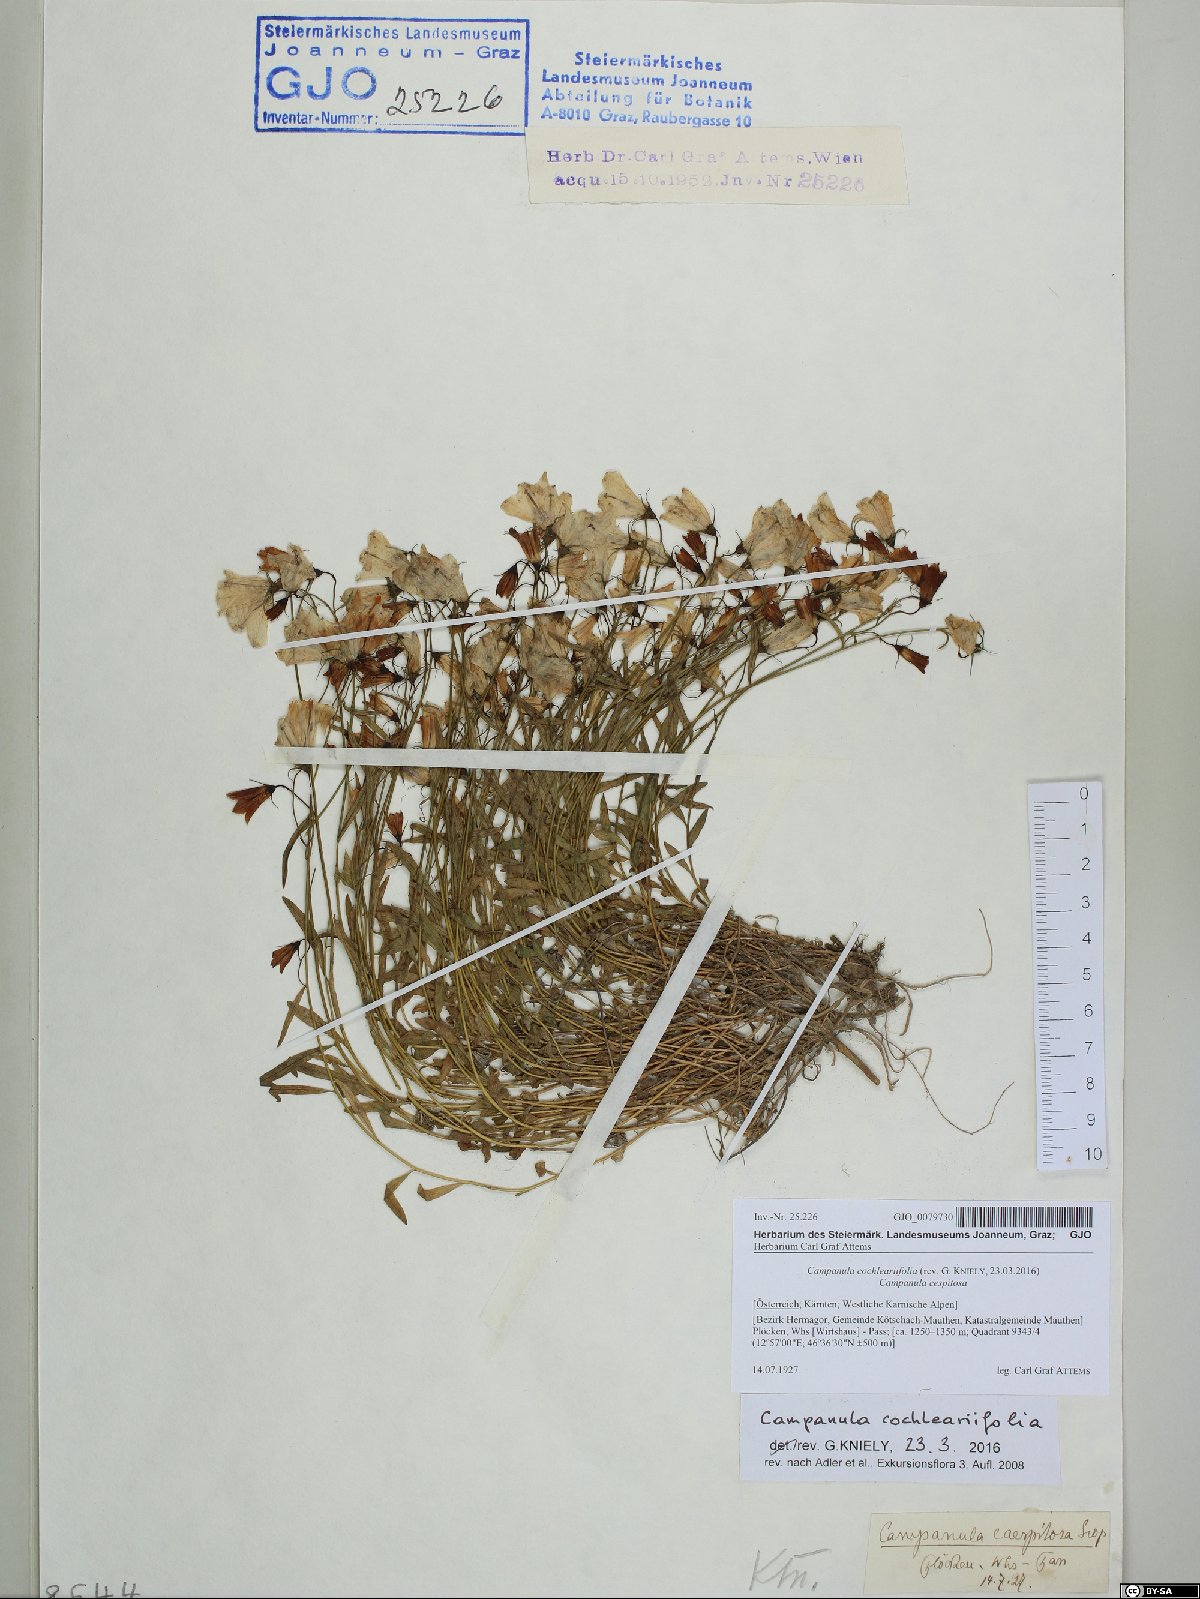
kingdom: Plantae
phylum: Tracheophyta
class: Magnoliopsida
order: Asterales
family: Campanulaceae
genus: Campanula
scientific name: Campanula cochleariifolia
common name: Fairies'-thimbles
